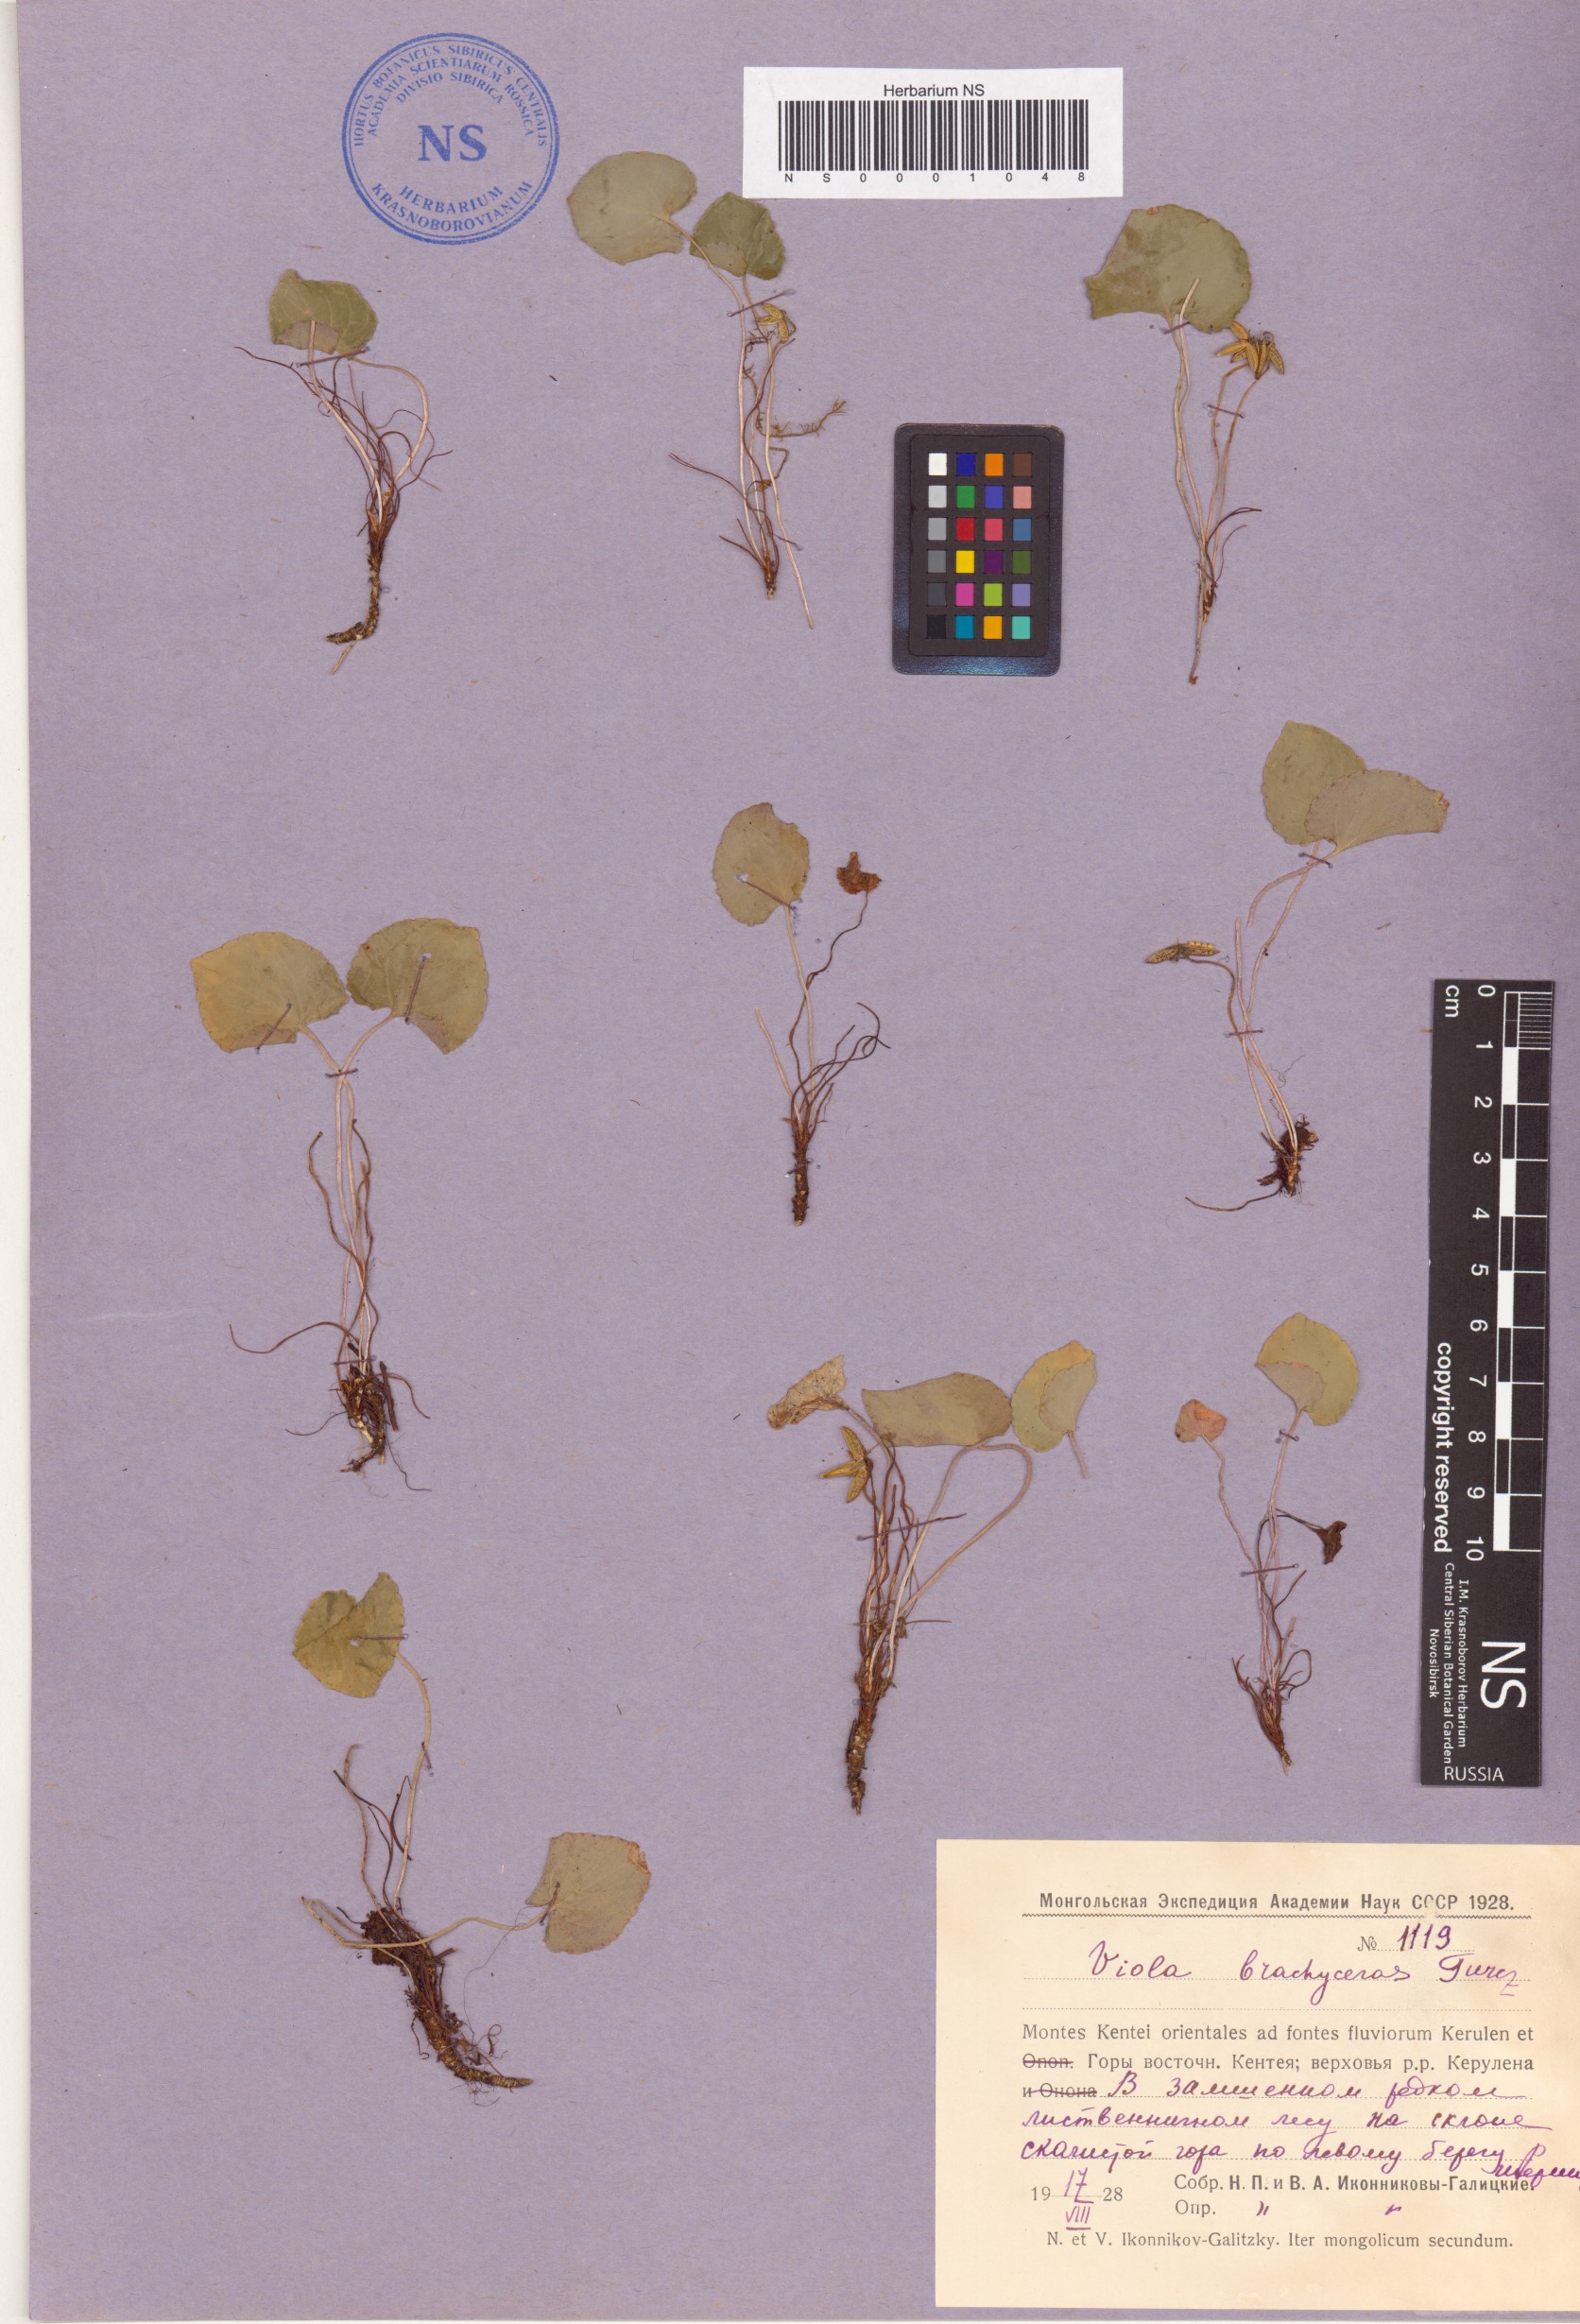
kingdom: Plantae
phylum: Tracheophyta
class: Magnoliopsida
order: Malpighiales
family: Violaceae
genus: Viola
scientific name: Viola epipsila
